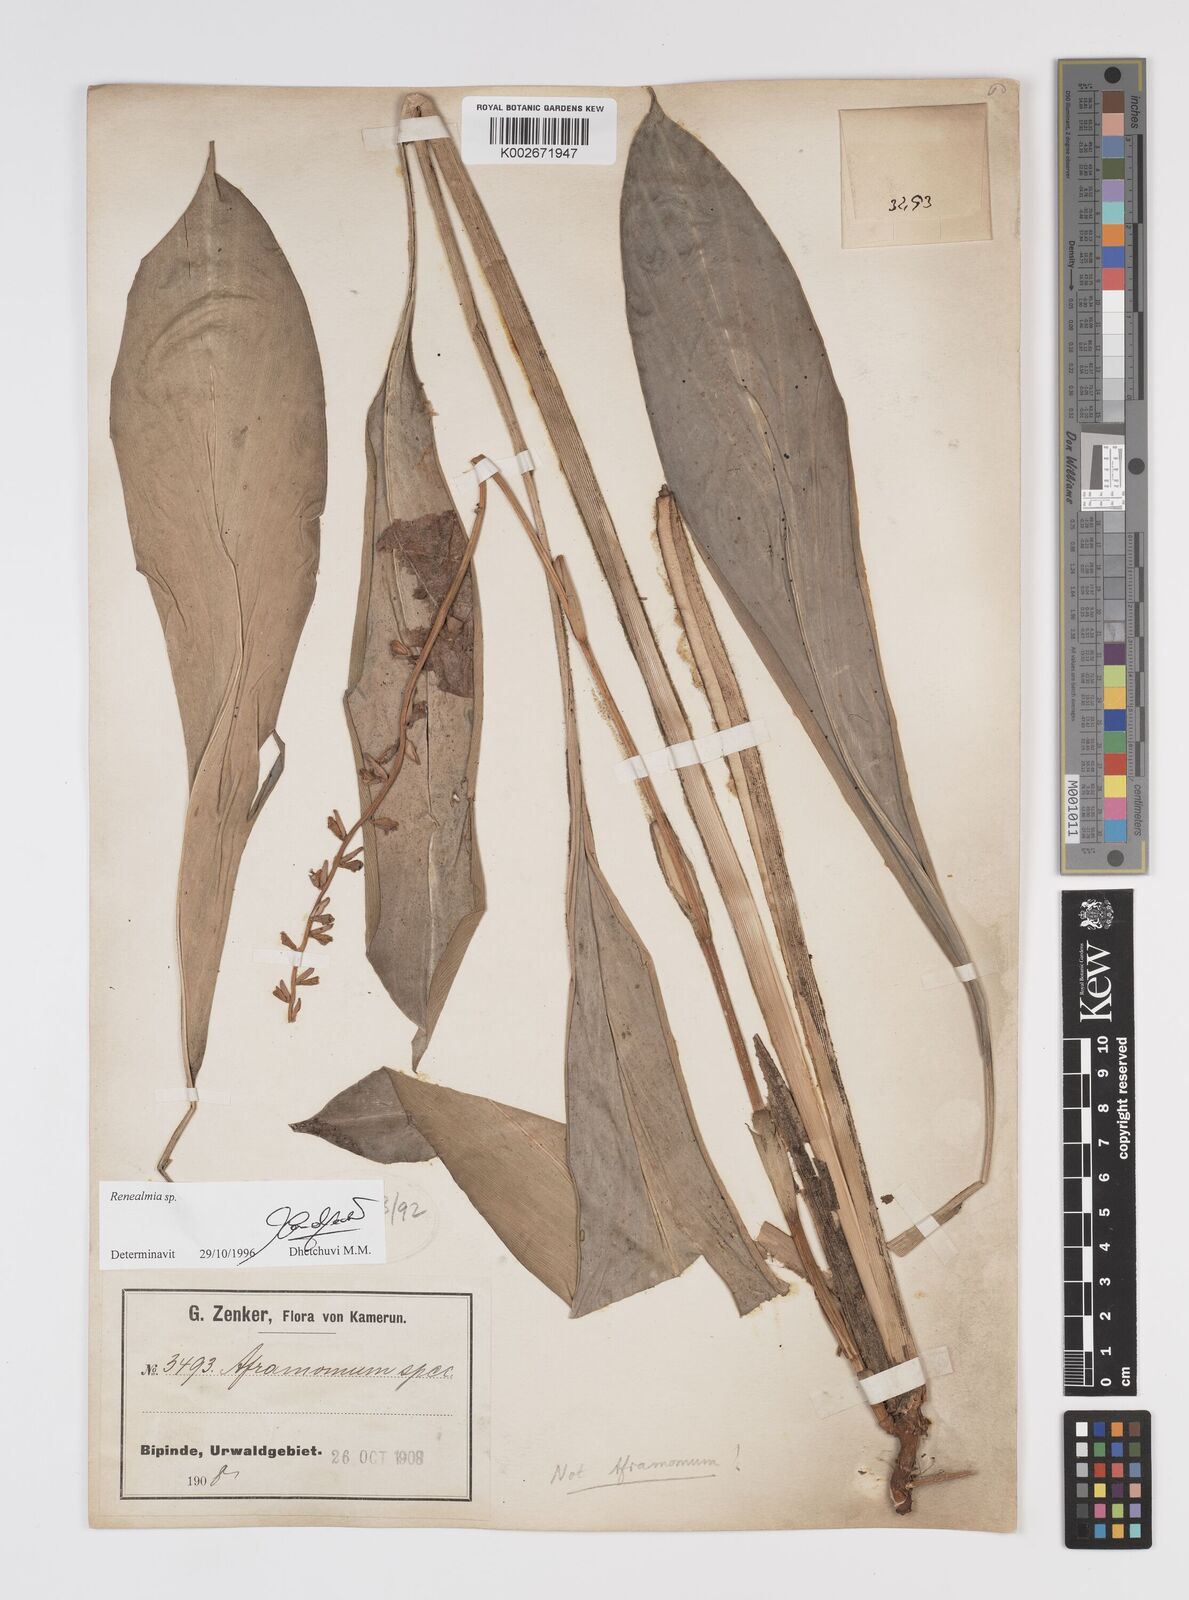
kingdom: Plantae
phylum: Tracheophyta
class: Liliopsida
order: Zingiberales
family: Zingiberaceae
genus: Renealmia
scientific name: Renealmia
